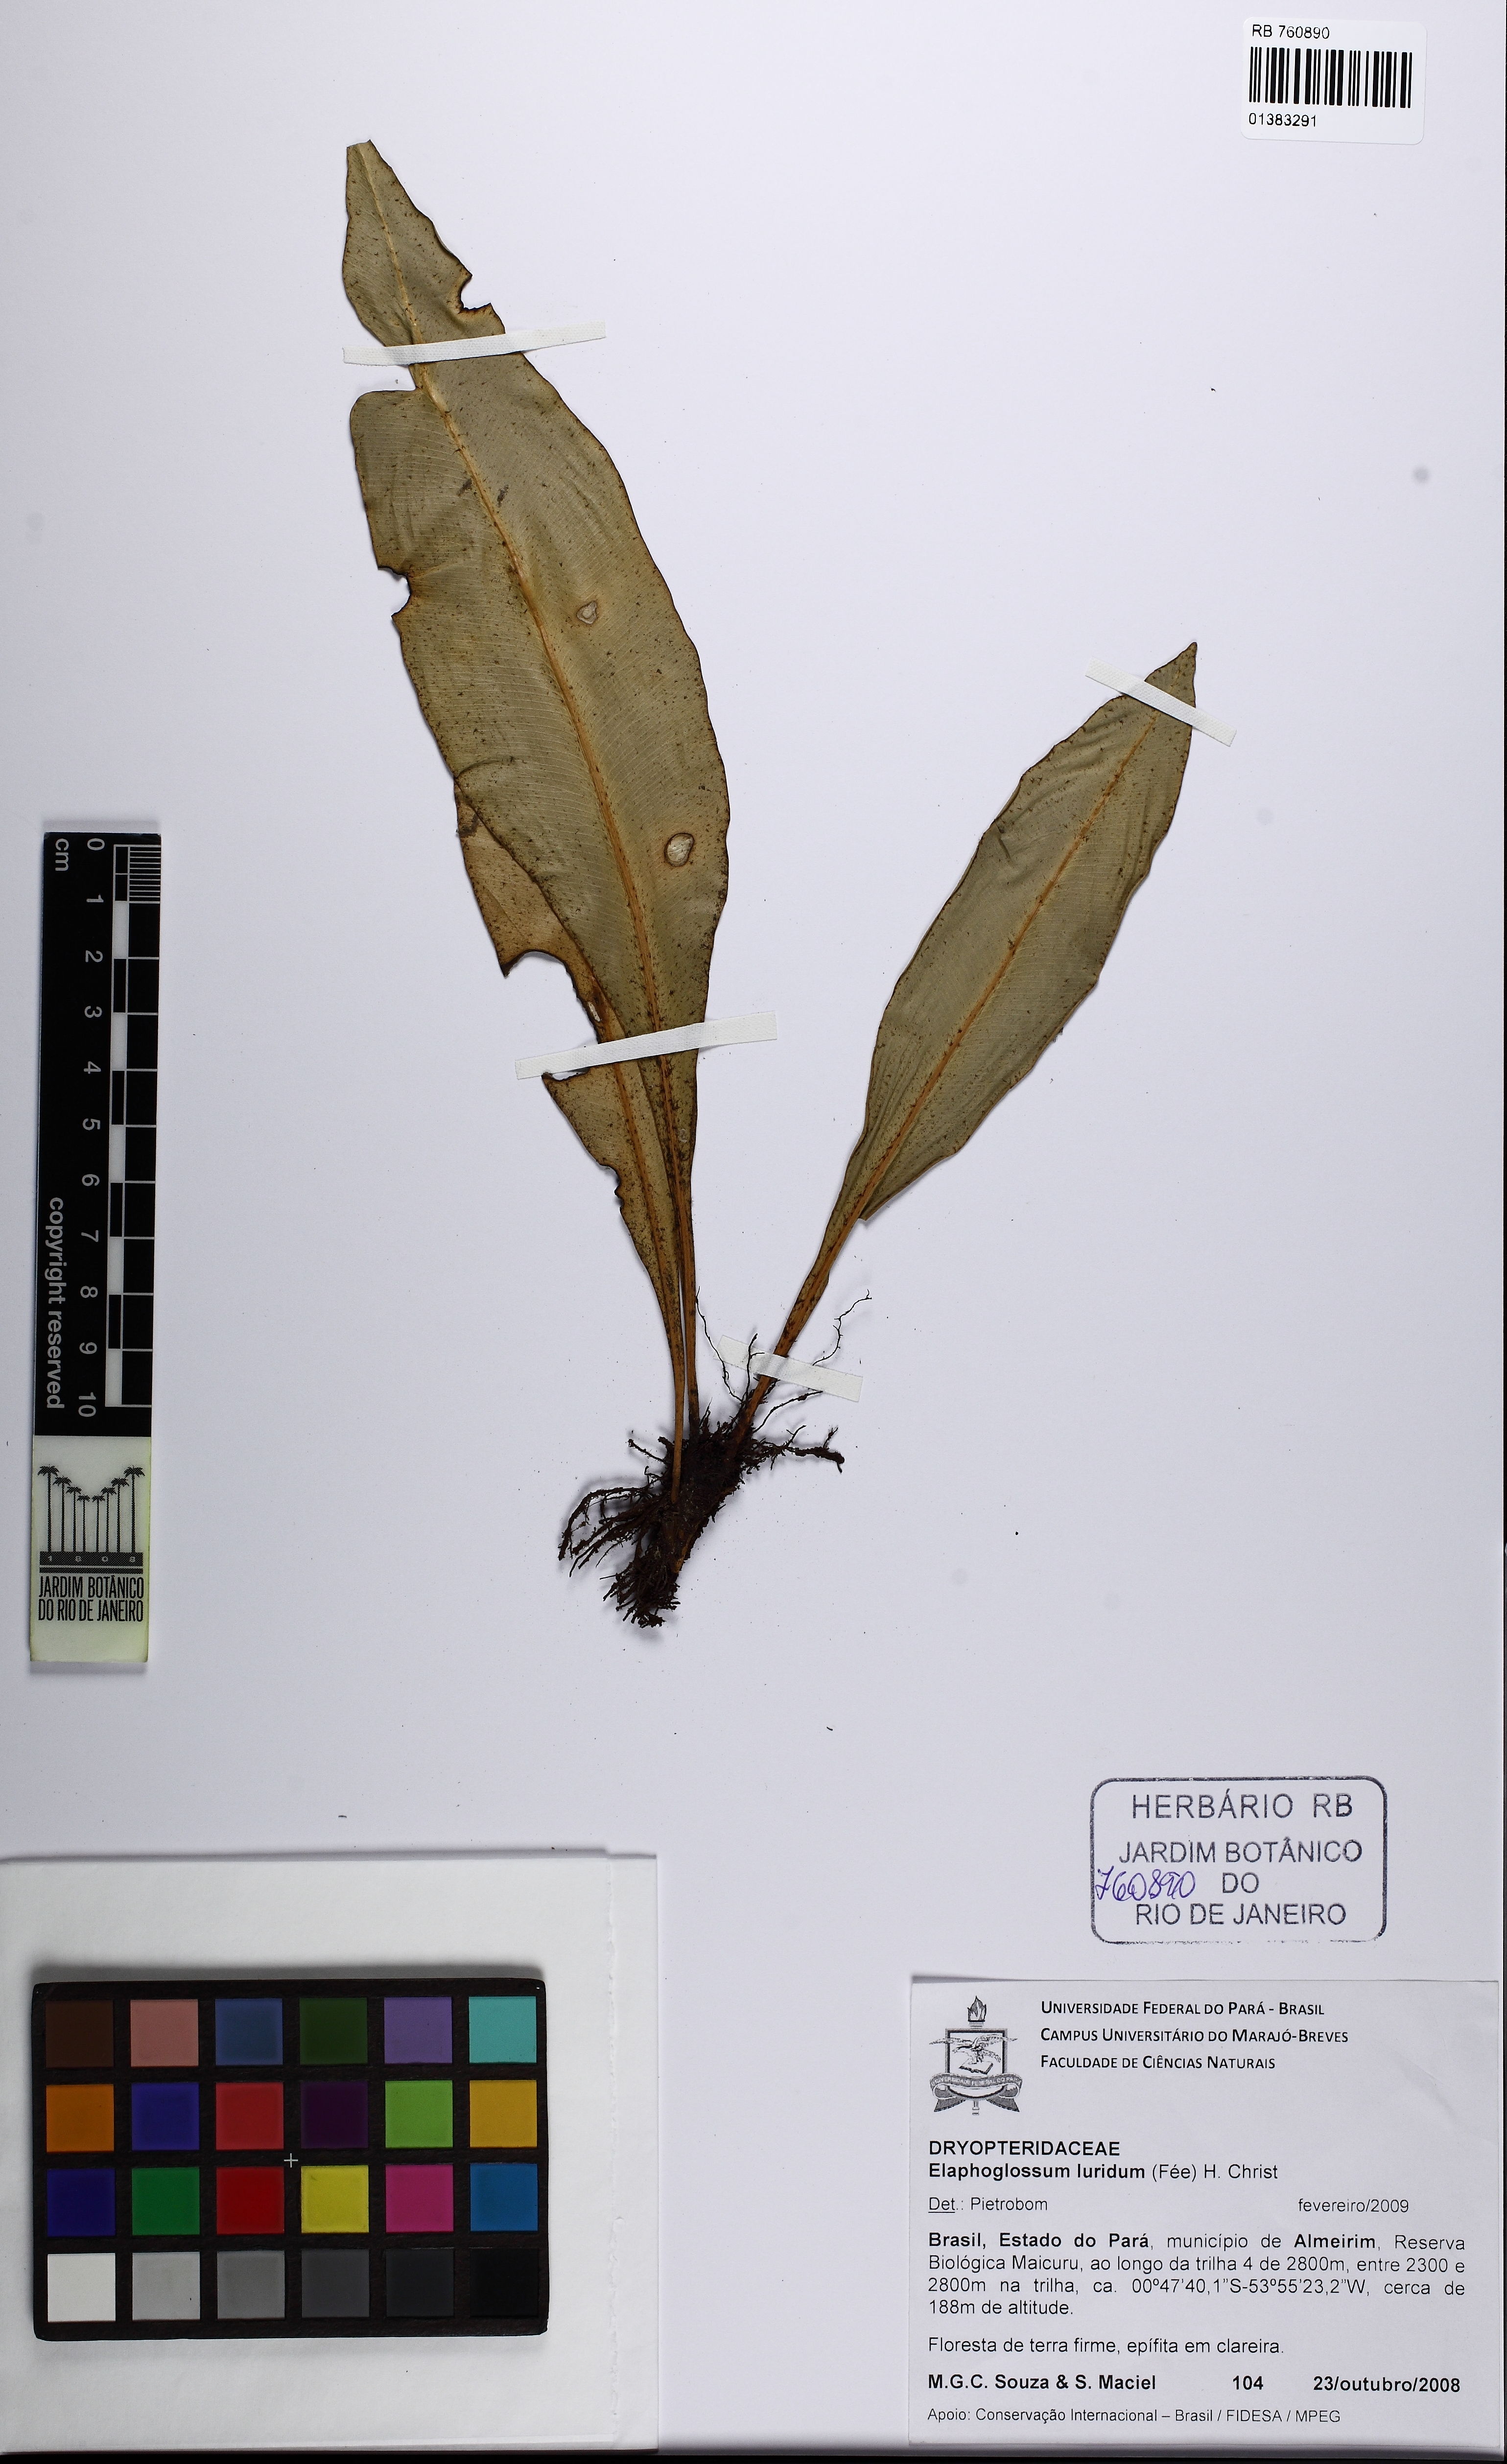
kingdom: Plantae
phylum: Tracheophyta
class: Polypodiopsida
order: Polypodiales
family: Dryopteridaceae
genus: Elaphoglossum
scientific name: Elaphoglossum luridum
